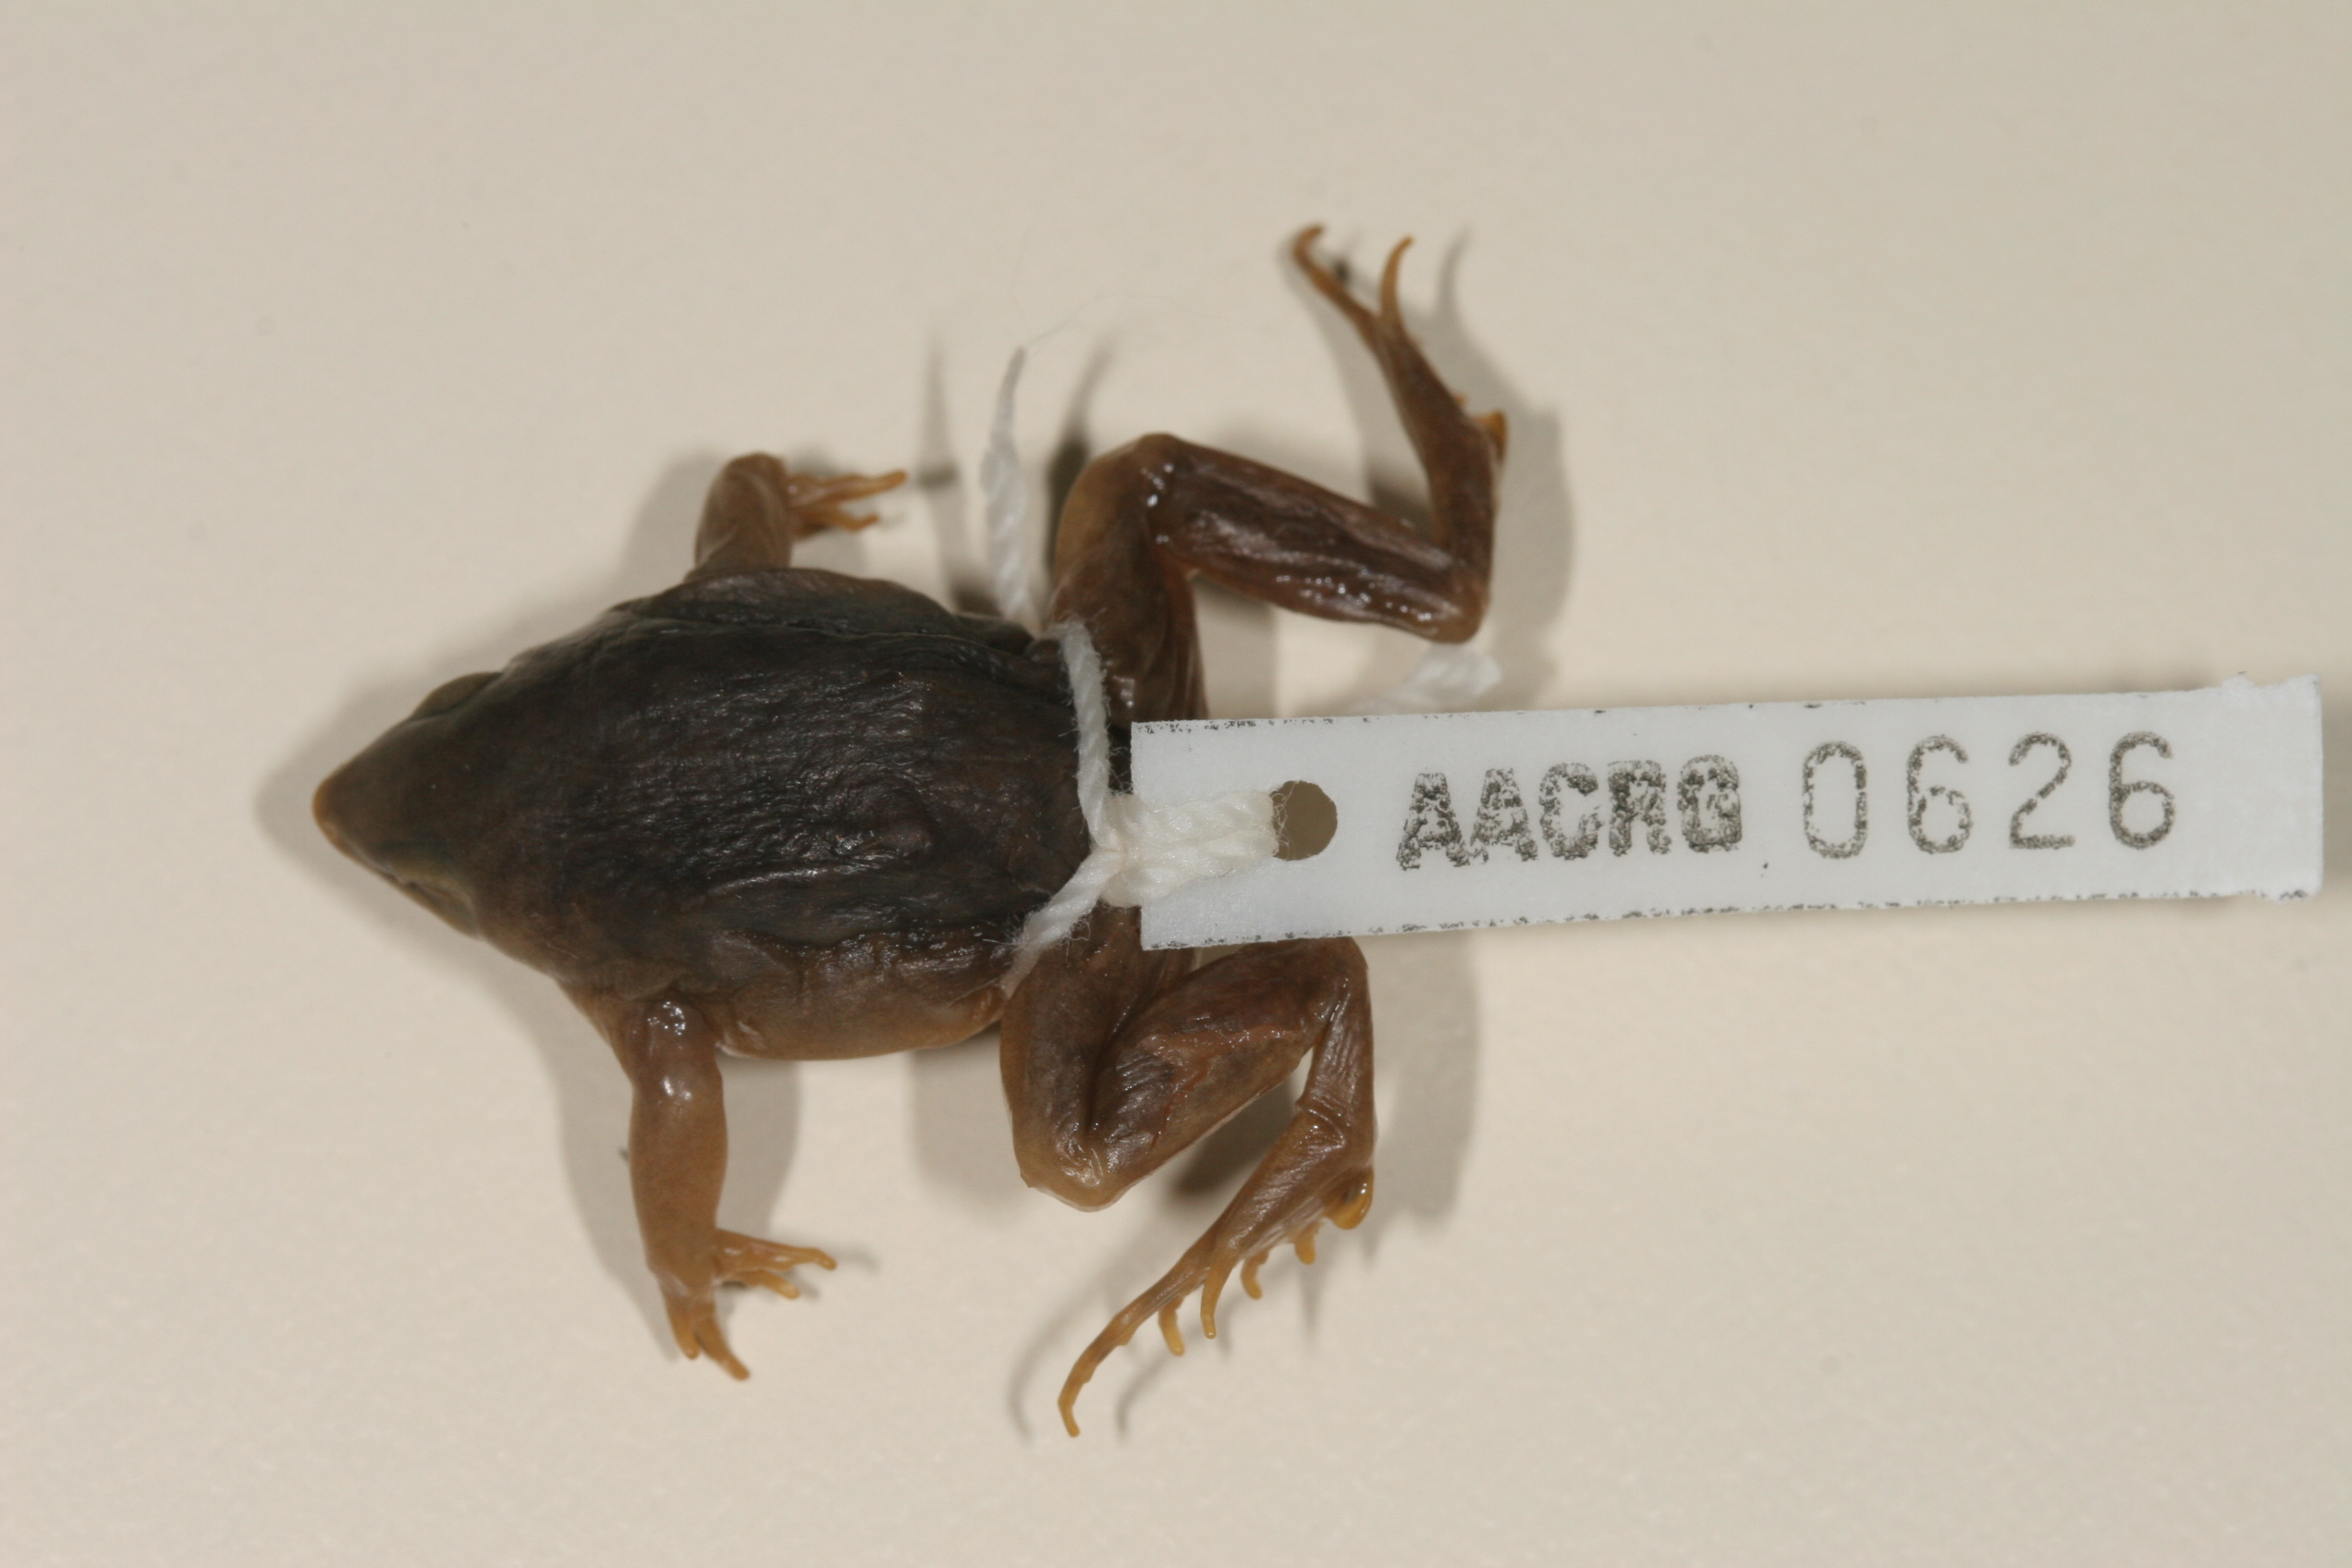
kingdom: Animalia
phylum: Chordata
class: Amphibia
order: Anura
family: Hemisotidae
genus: Hemisus
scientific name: Hemisus marmoratus
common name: Mottled shovel-nosed frog
